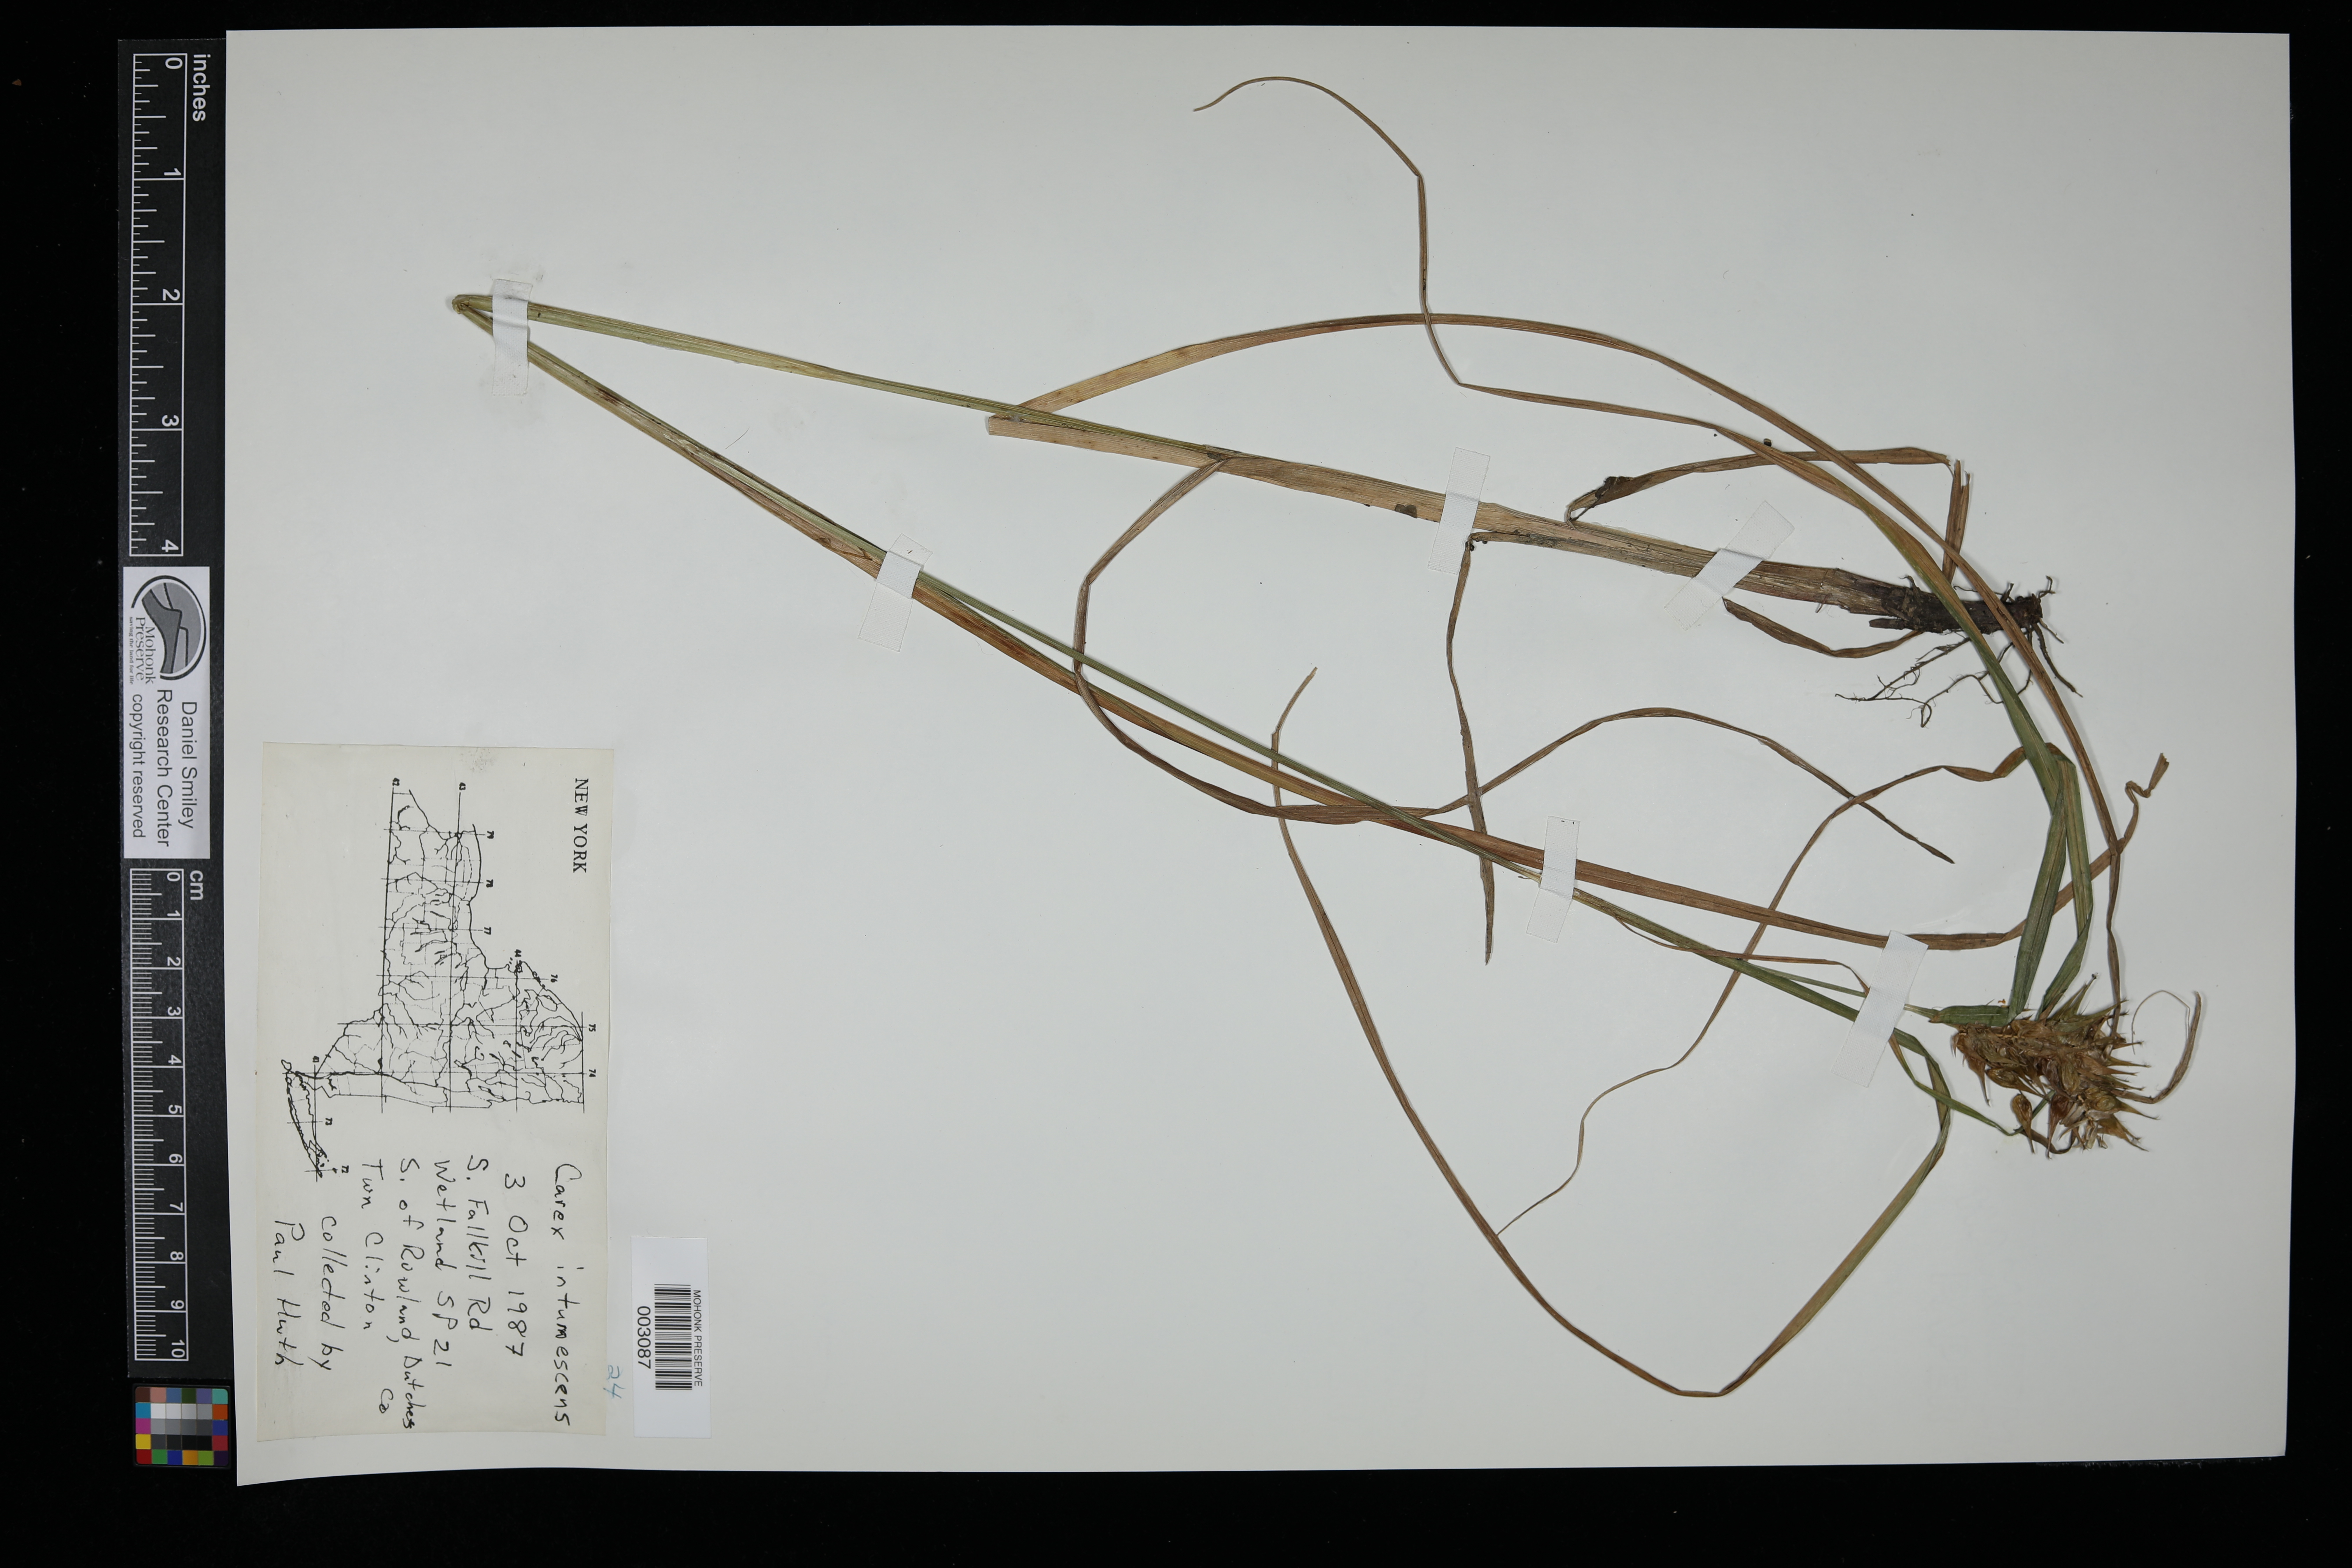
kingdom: Plantae
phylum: Tracheophyta
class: Liliopsida
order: Poales
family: Cyperaceae
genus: Carex
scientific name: Carex intumescens
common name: Greater bladder sedge
